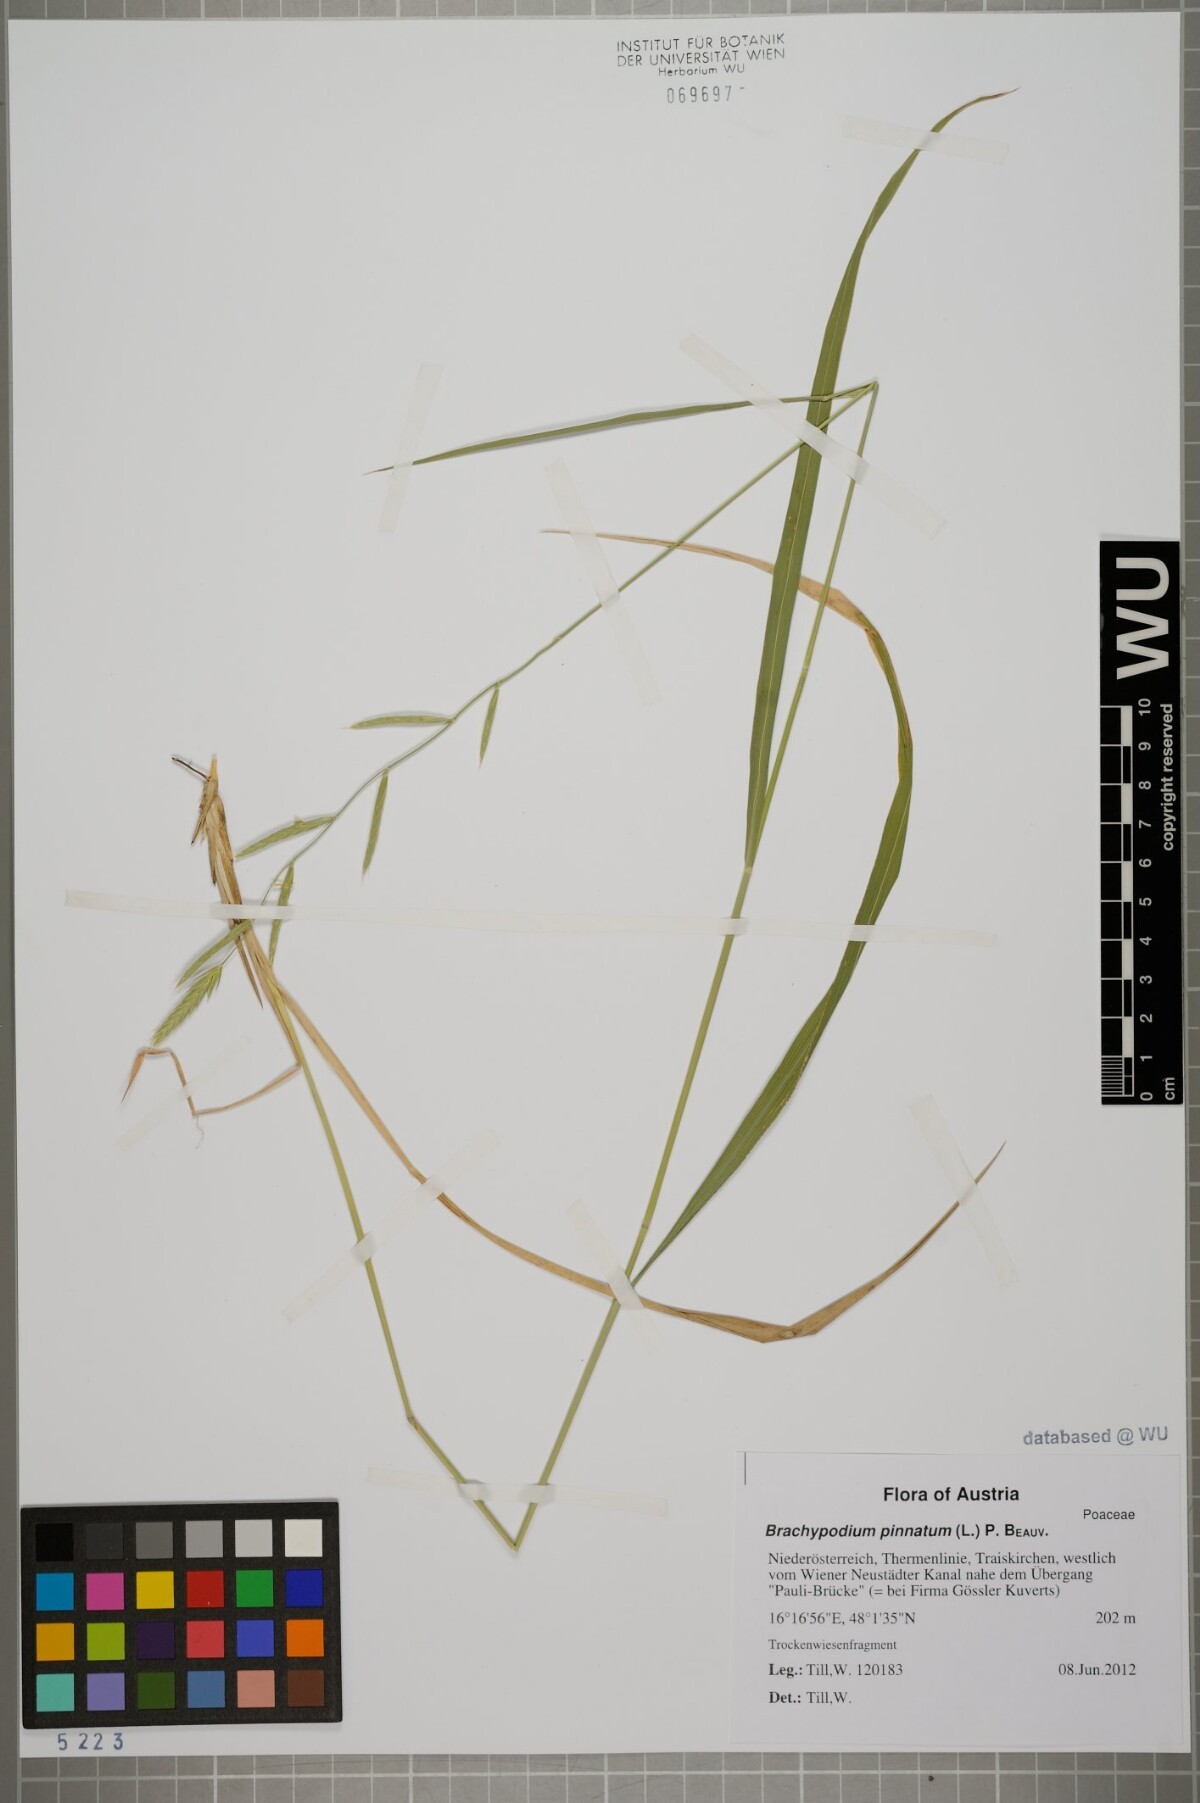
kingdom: Plantae
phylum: Tracheophyta
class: Liliopsida
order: Poales
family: Poaceae
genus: Brachypodium
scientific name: Brachypodium pinnatum
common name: Tor grass
